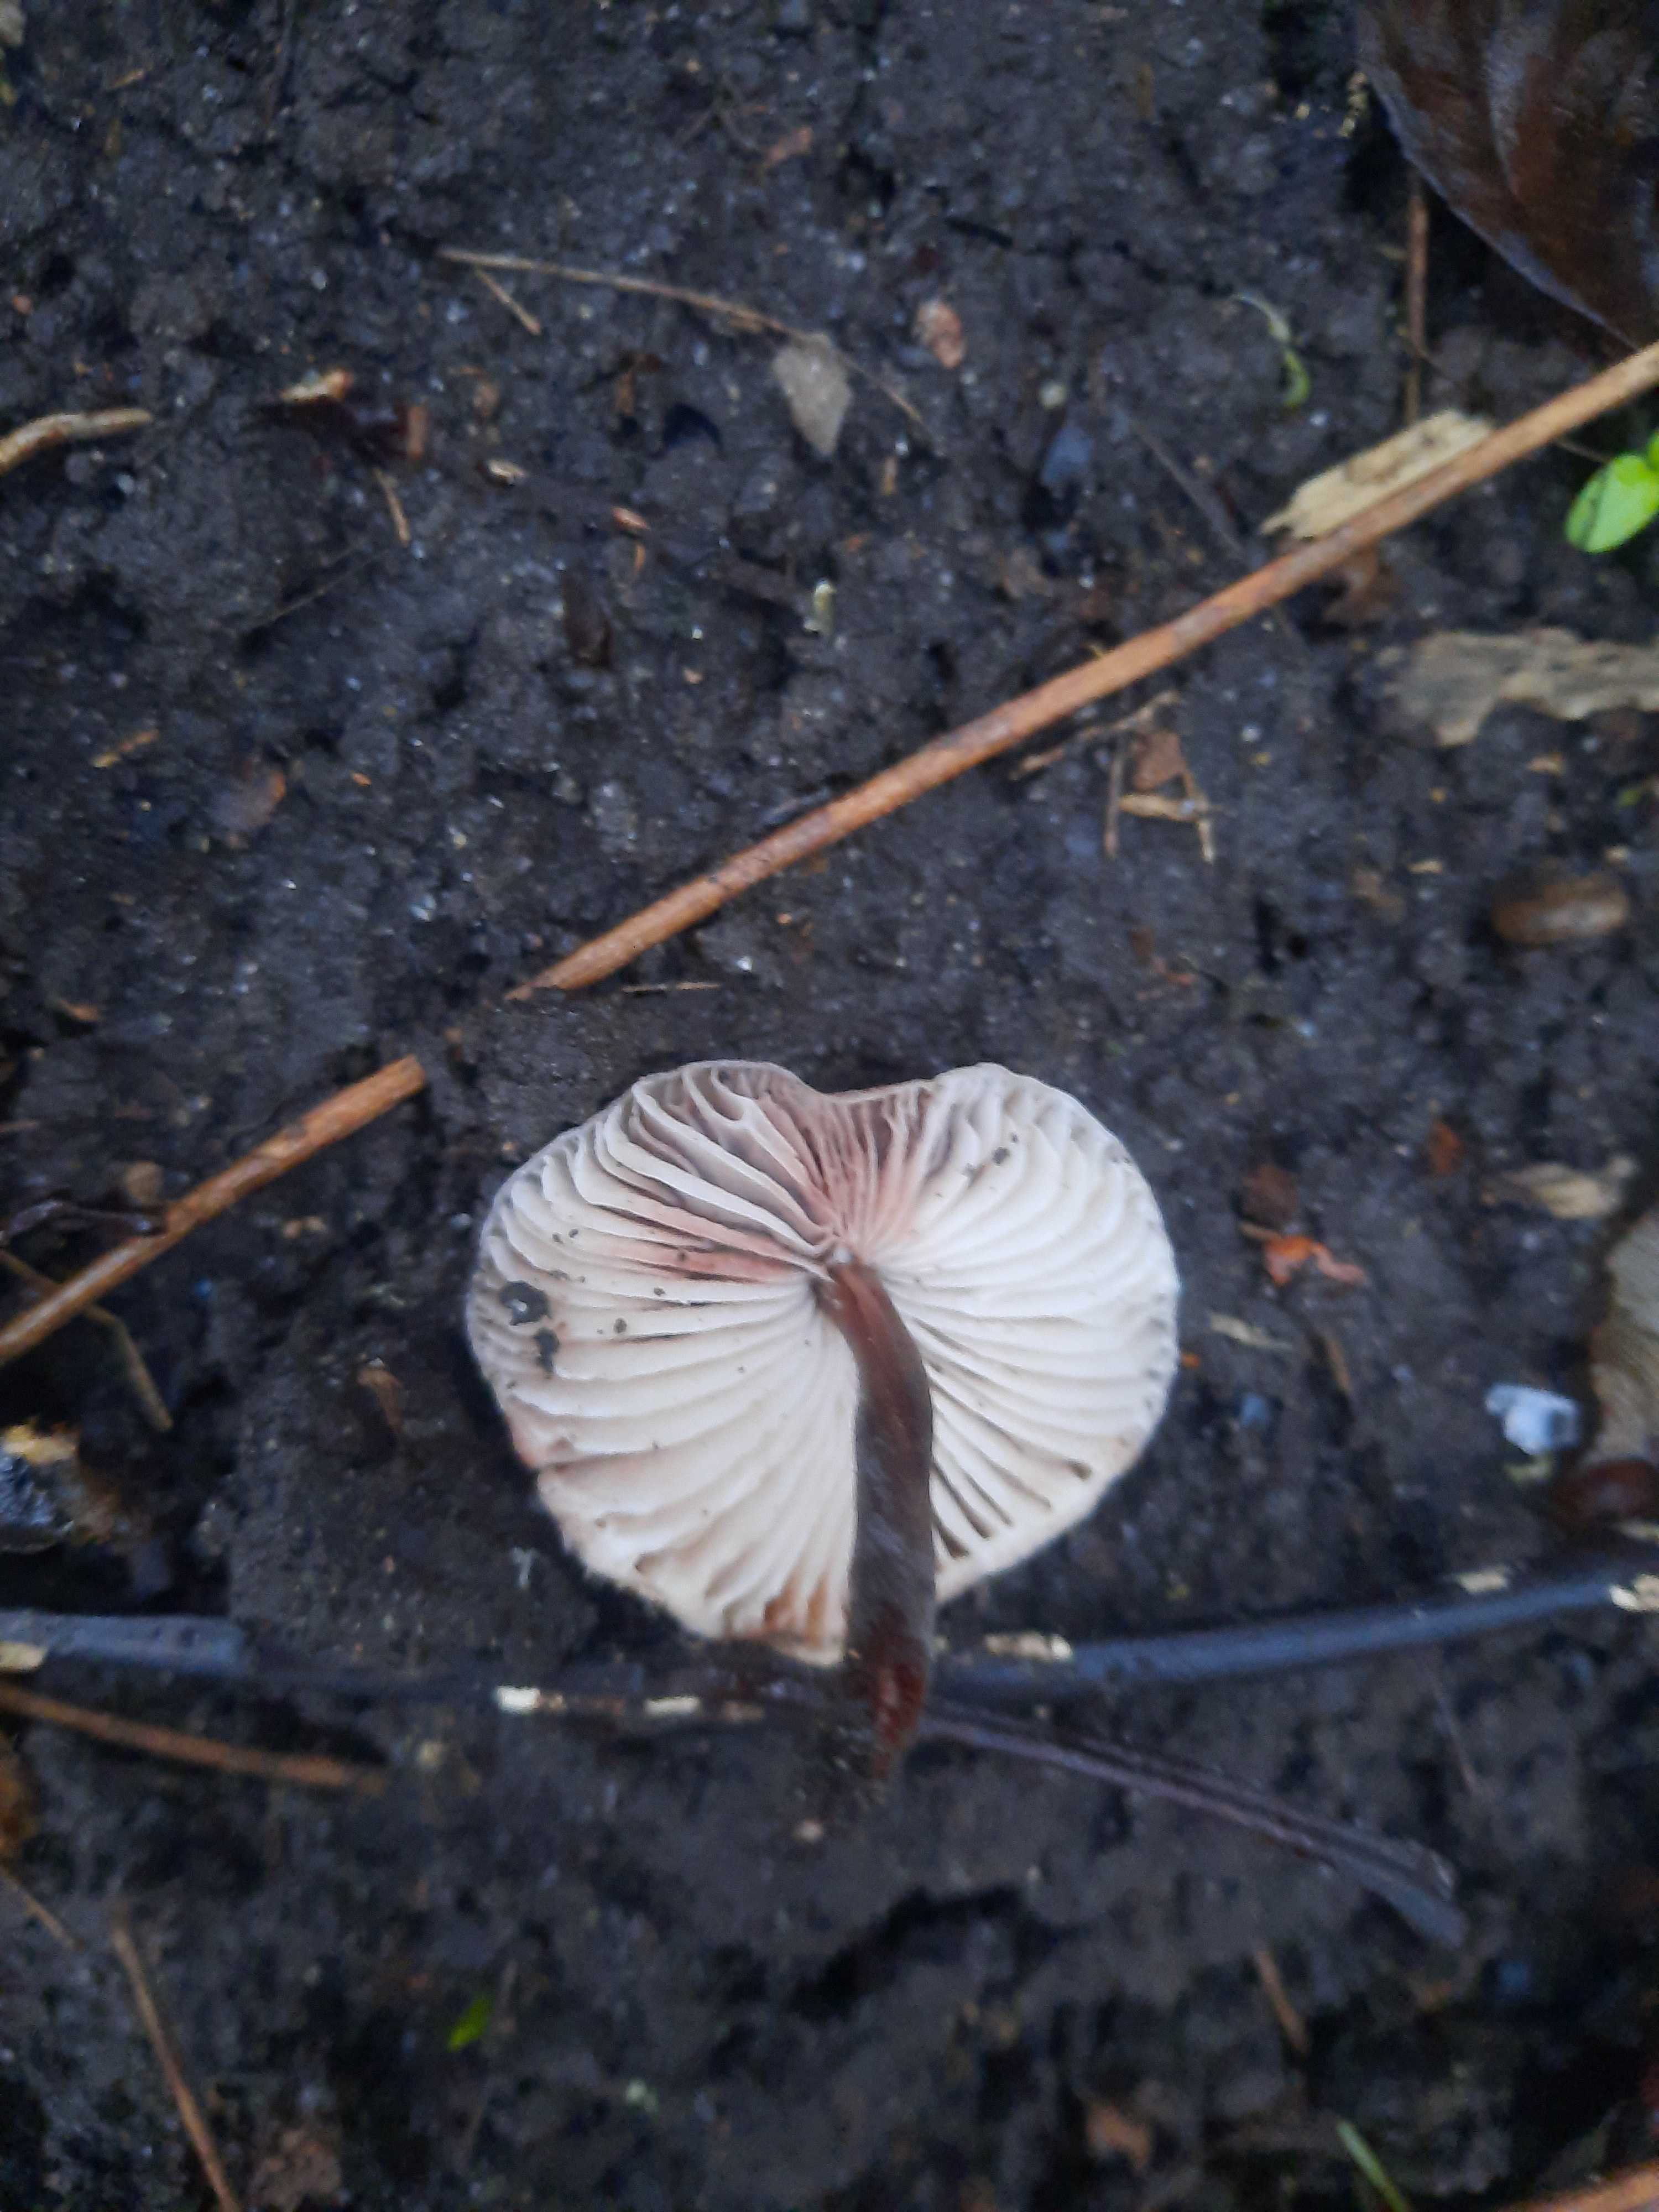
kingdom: Fungi
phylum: Basidiomycota
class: Agaricomycetes
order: Agaricales
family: Mycenaceae
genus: Mycena
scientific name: Mycena
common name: huesvamp
